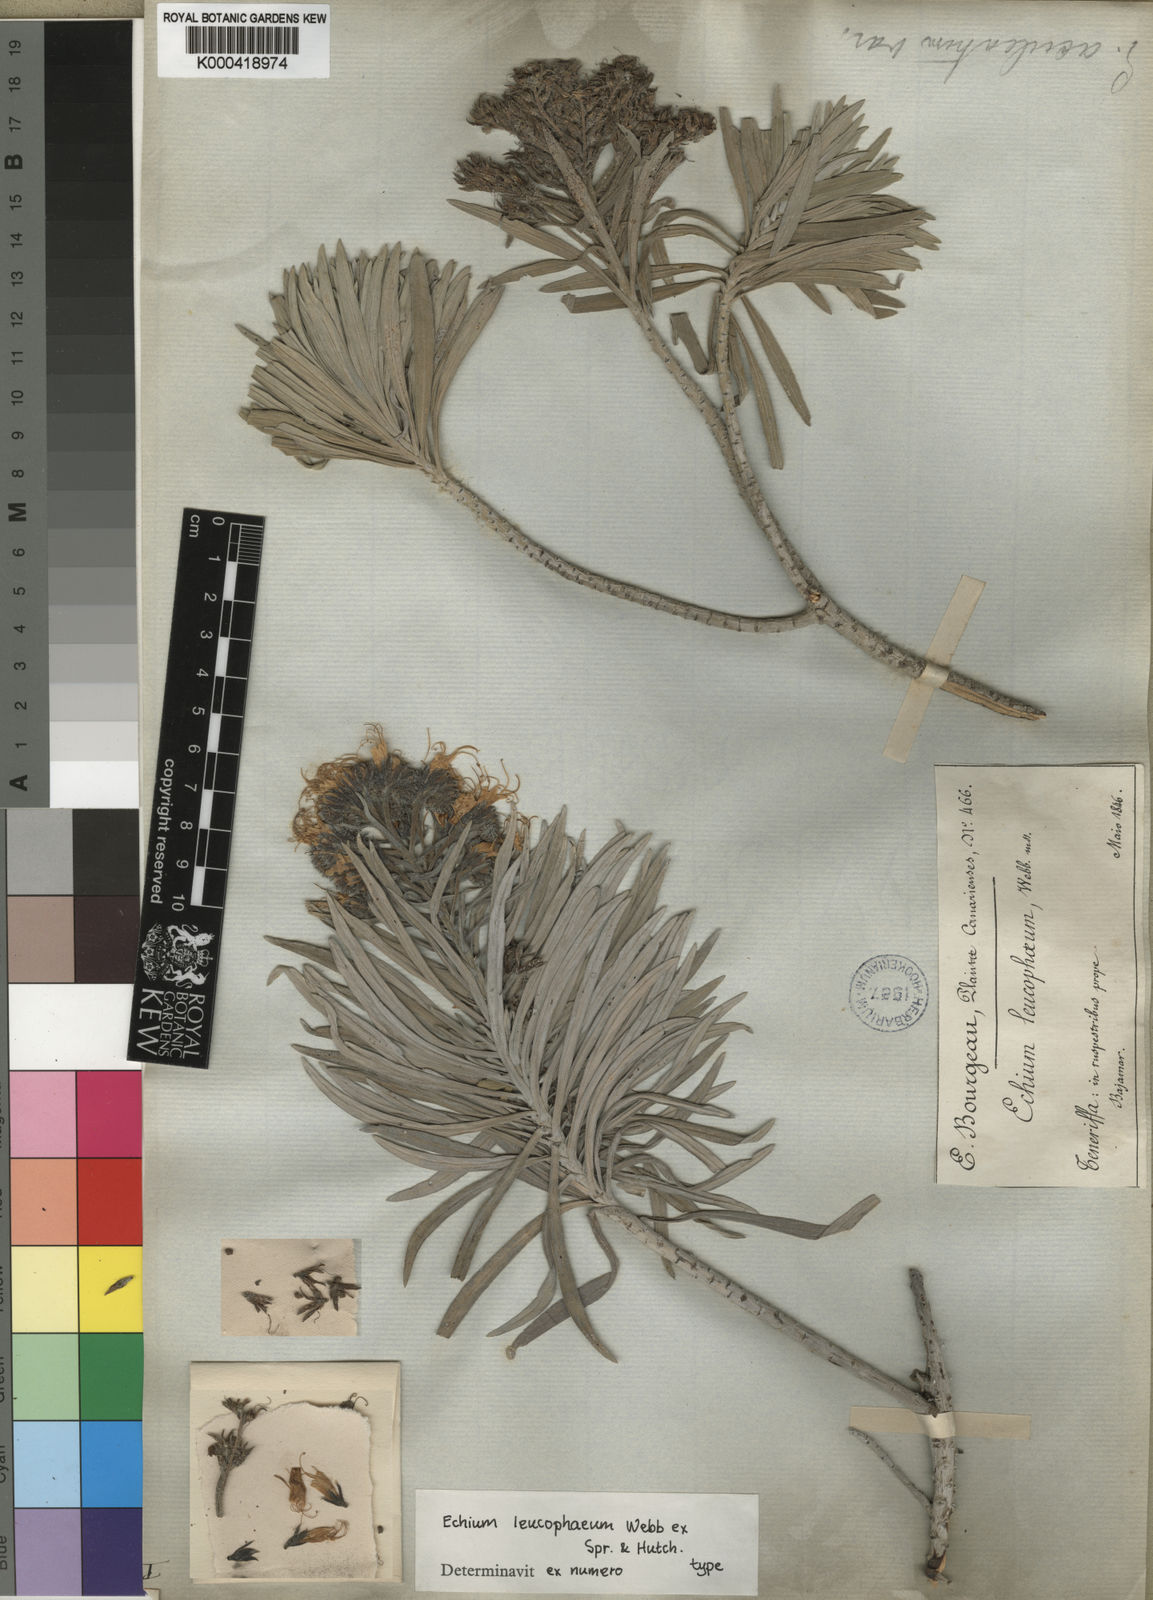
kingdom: Plantae
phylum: Tracheophyta
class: Magnoliopsida
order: Boraginales
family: Boraginaceae
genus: Echium
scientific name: Echium leucophaeum
